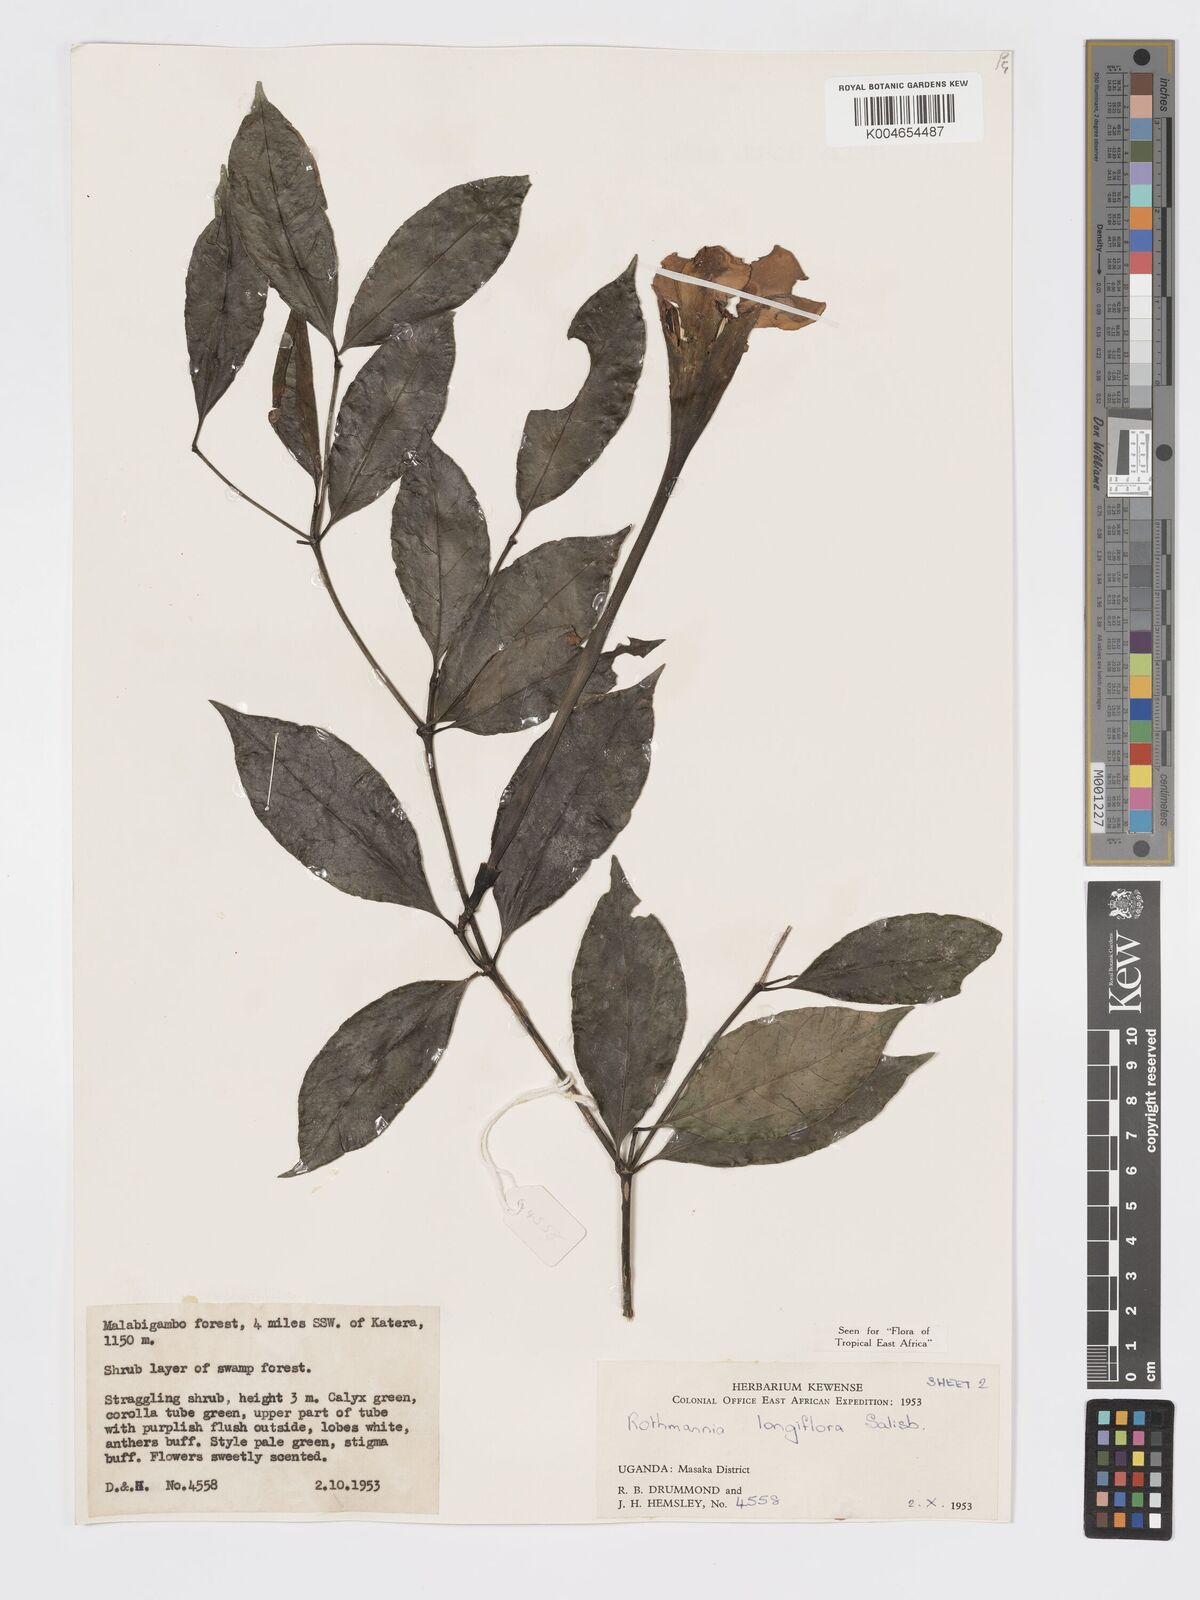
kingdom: Plantae
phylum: Tracheophyta
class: Magnoliopsida
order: Gentianales
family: Rubiaceae
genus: Rothmannia
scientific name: Rothmannia longiflora
